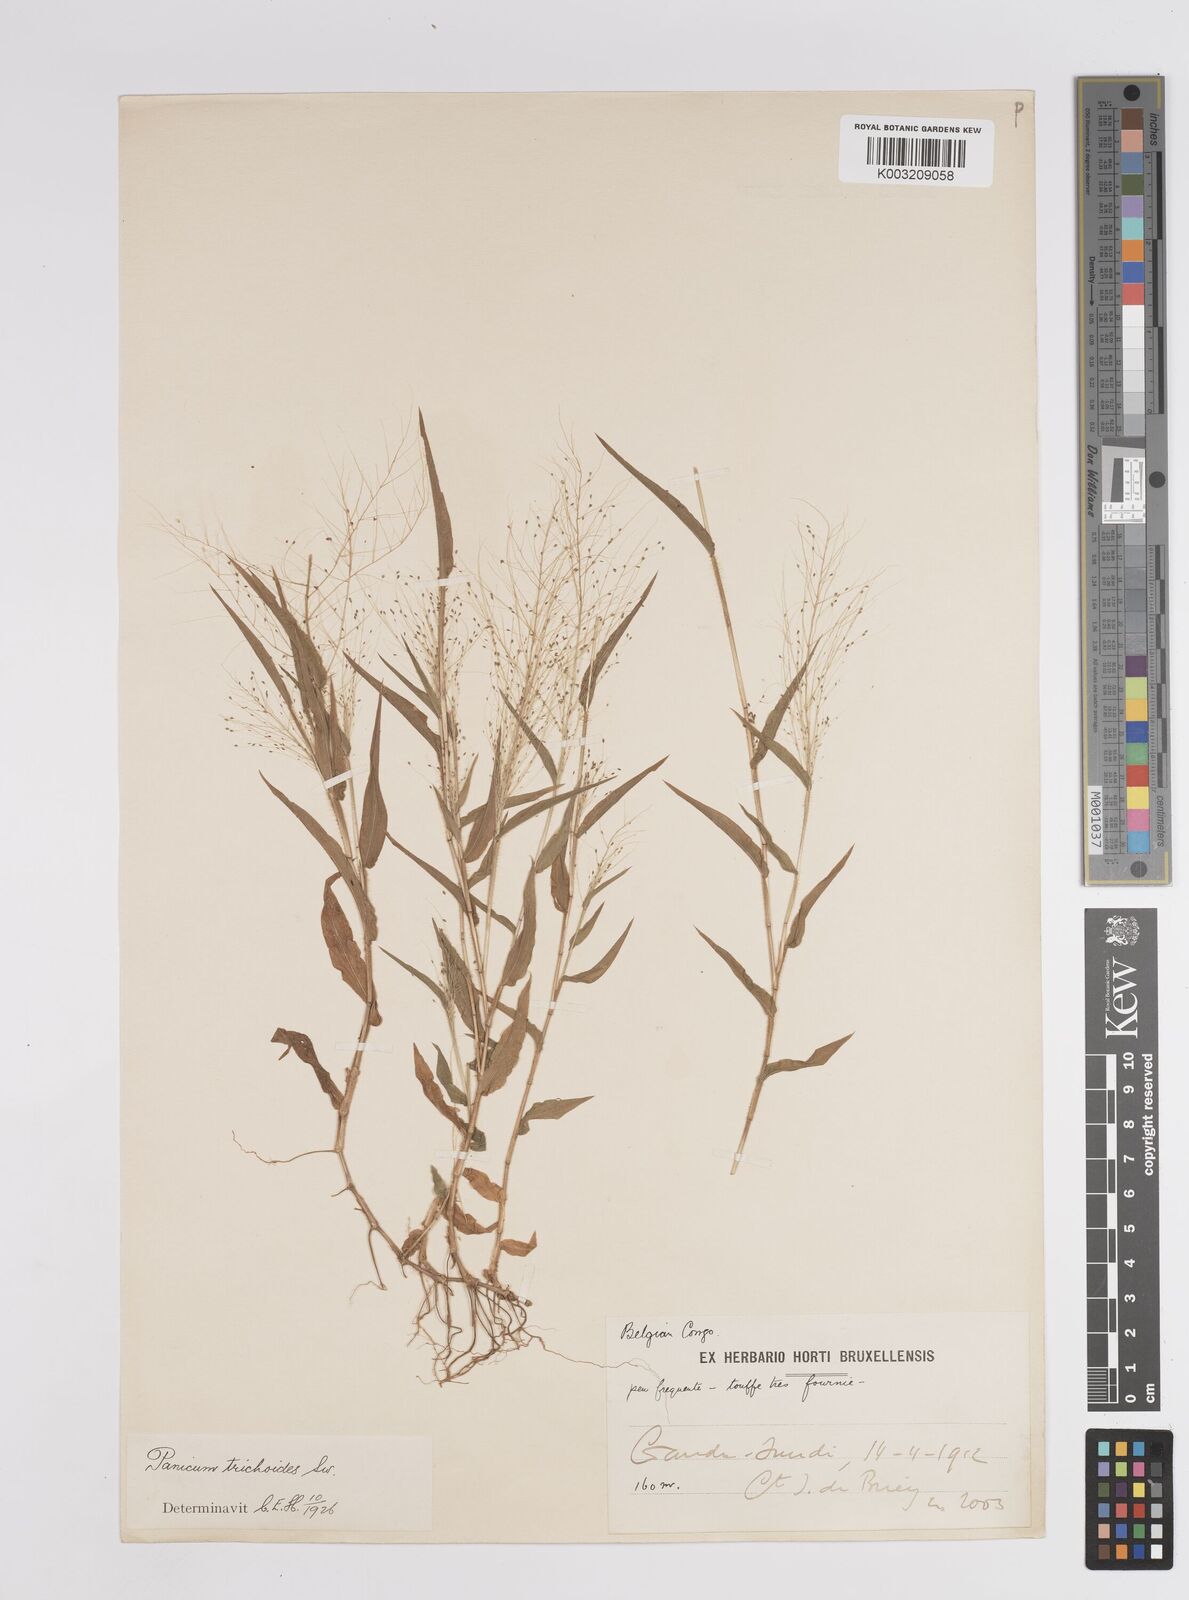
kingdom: Plantae
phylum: Tracheophyta
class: Liliopsida
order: Poales
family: Poaceae
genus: Panicum
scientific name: Panicum trichoides
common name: Tickle grass
